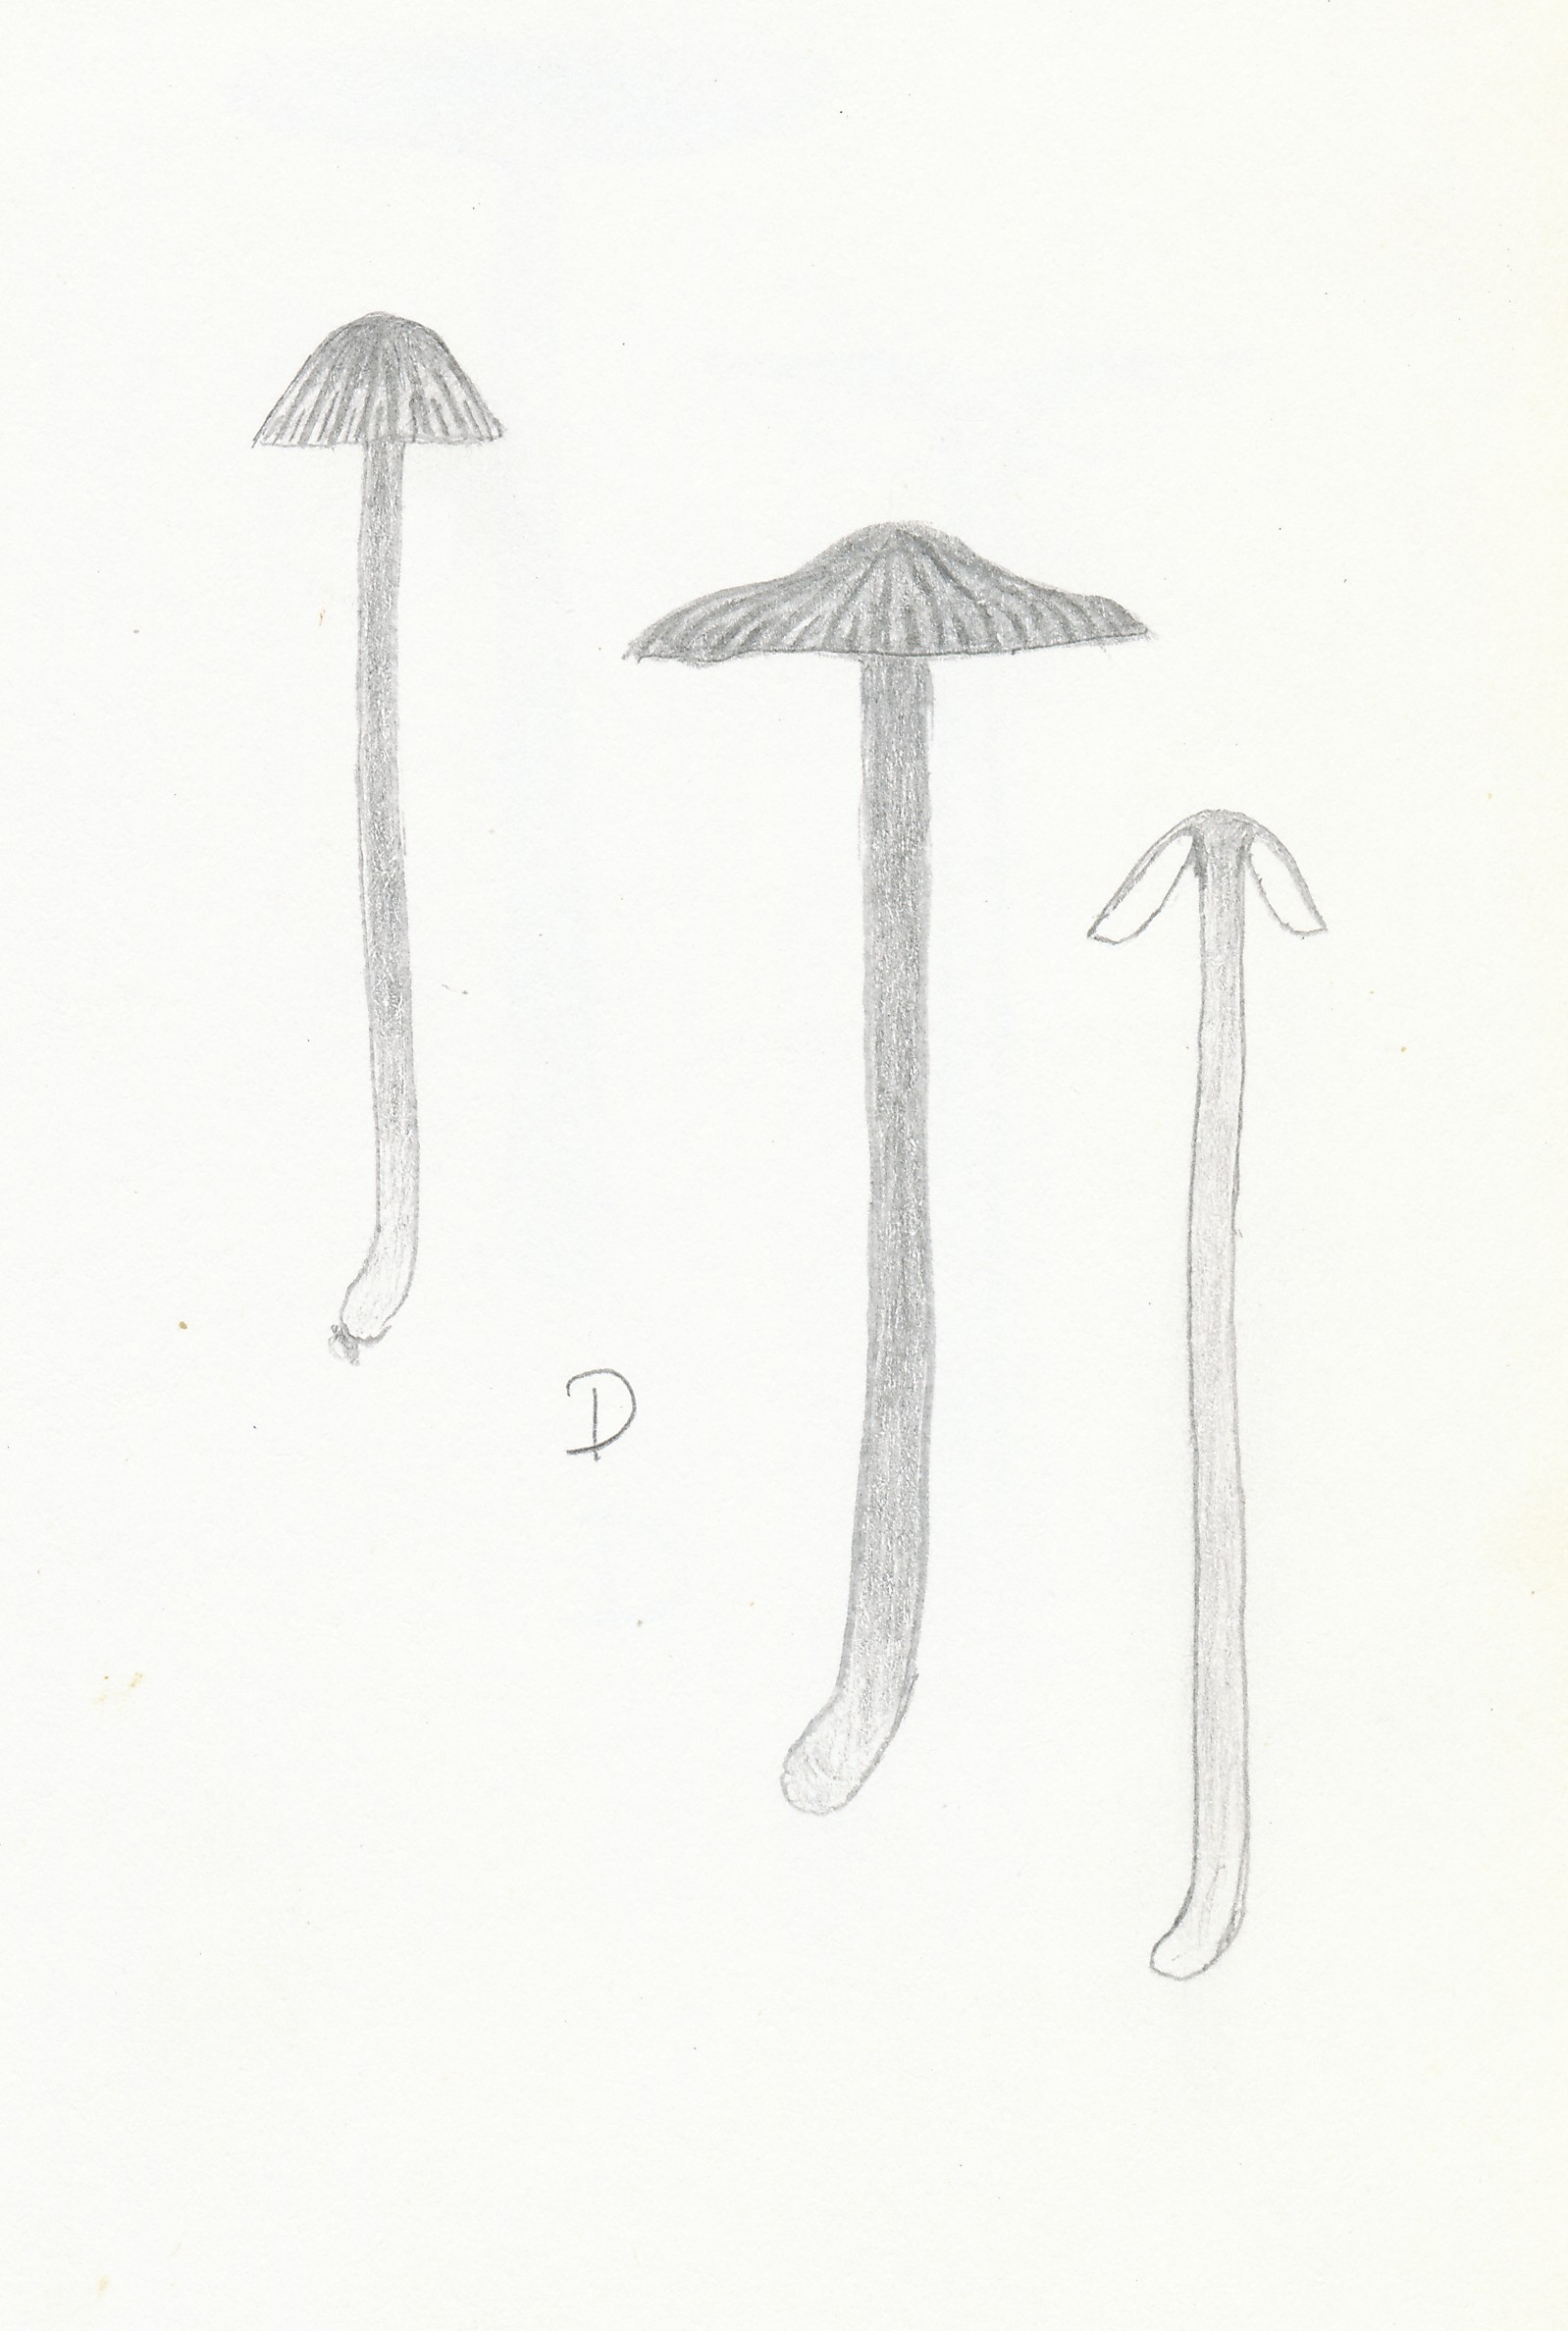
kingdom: Fungi
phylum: Basidiomycota
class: Agaricomycetes
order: Agaricales
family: Entolomataceae
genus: Entoloma
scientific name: Entoloma minutum
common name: liden rødblad
